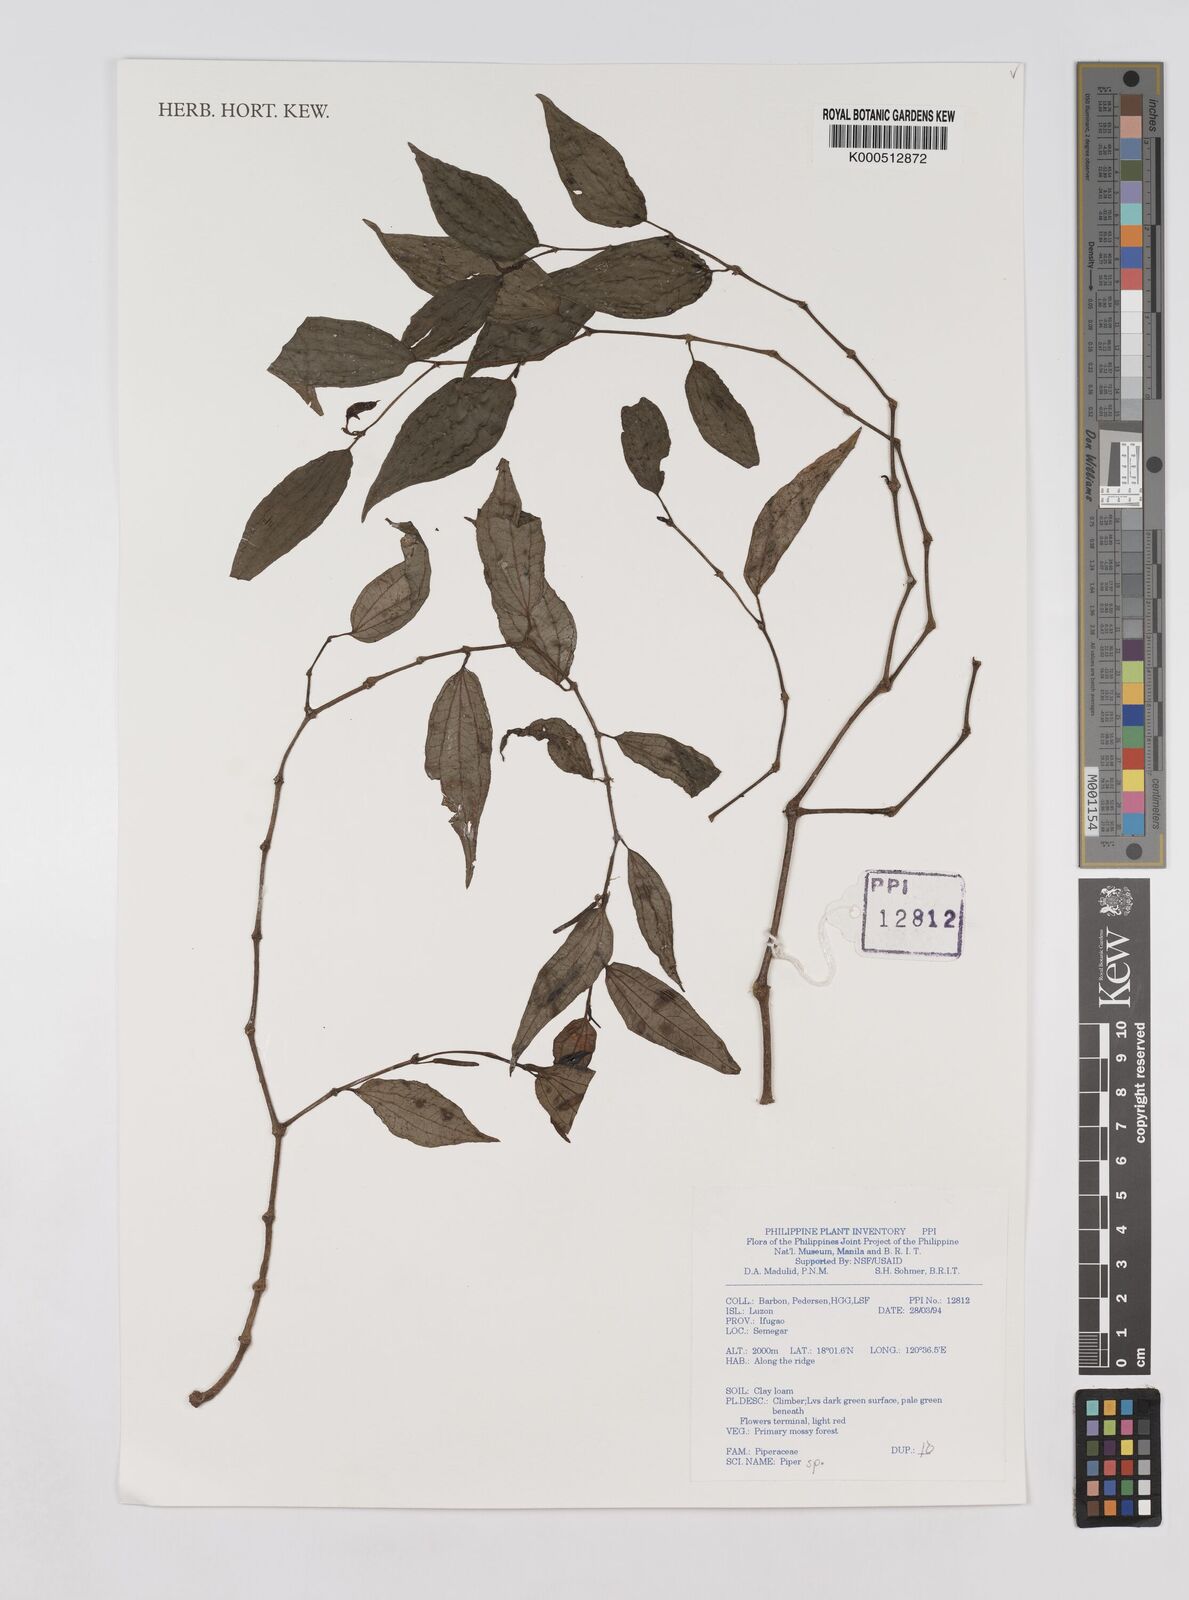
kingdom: Plantae
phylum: Tracheophyta
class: Magnoliopsida
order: Piperales
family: Piperaceae
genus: Piper
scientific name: Piper
